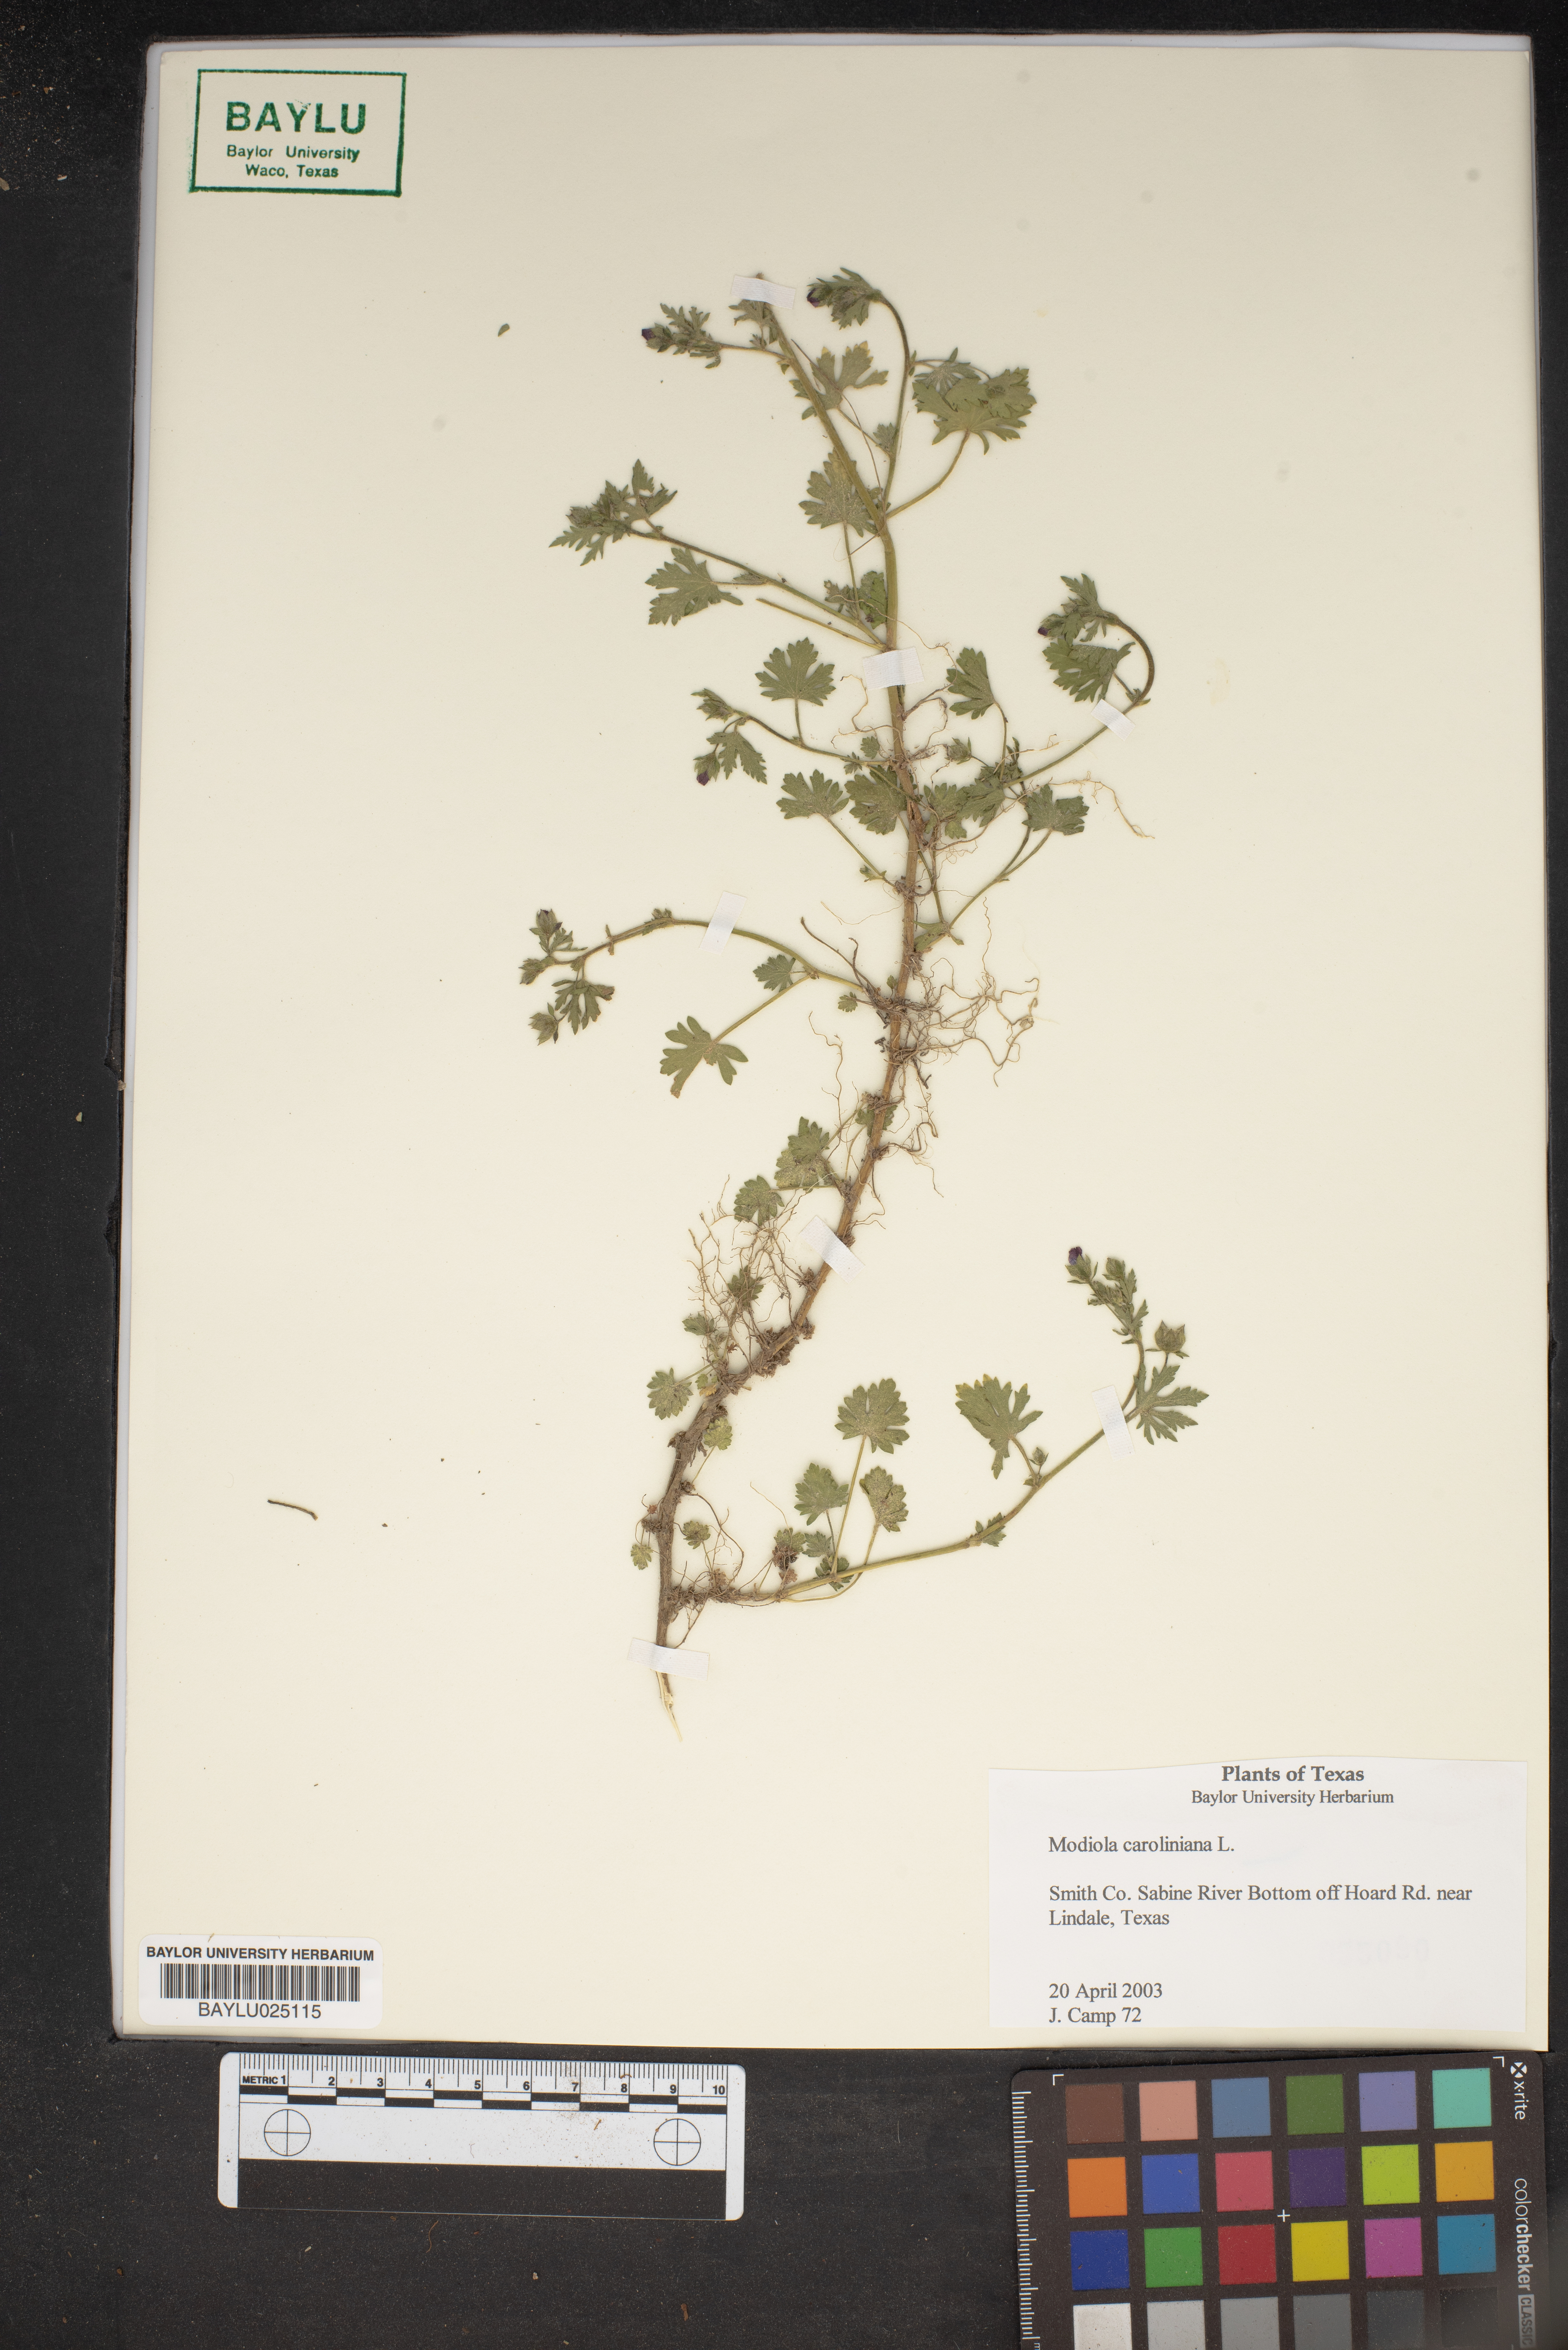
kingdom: Plantae
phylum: Tracheophyta
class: Magnoliopsida
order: Malvales
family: Malvaceae
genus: Modiola
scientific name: Modiola caroliniana
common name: Carolina bristlemallow
